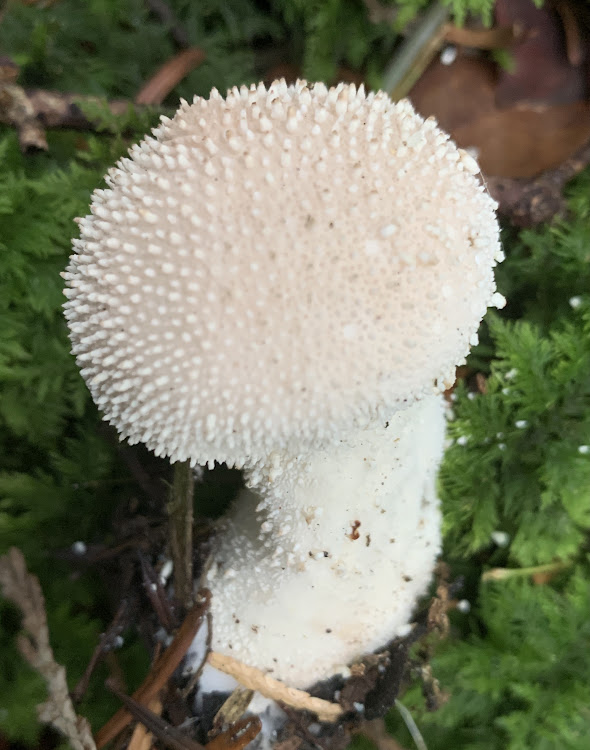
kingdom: Fungi
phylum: Basidiomycota
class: Agaricomycetes
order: Agaricales
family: Lycoperdaceae
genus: Lycoperdon
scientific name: Lycoperdon perlatum
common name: krystal-støvbold
